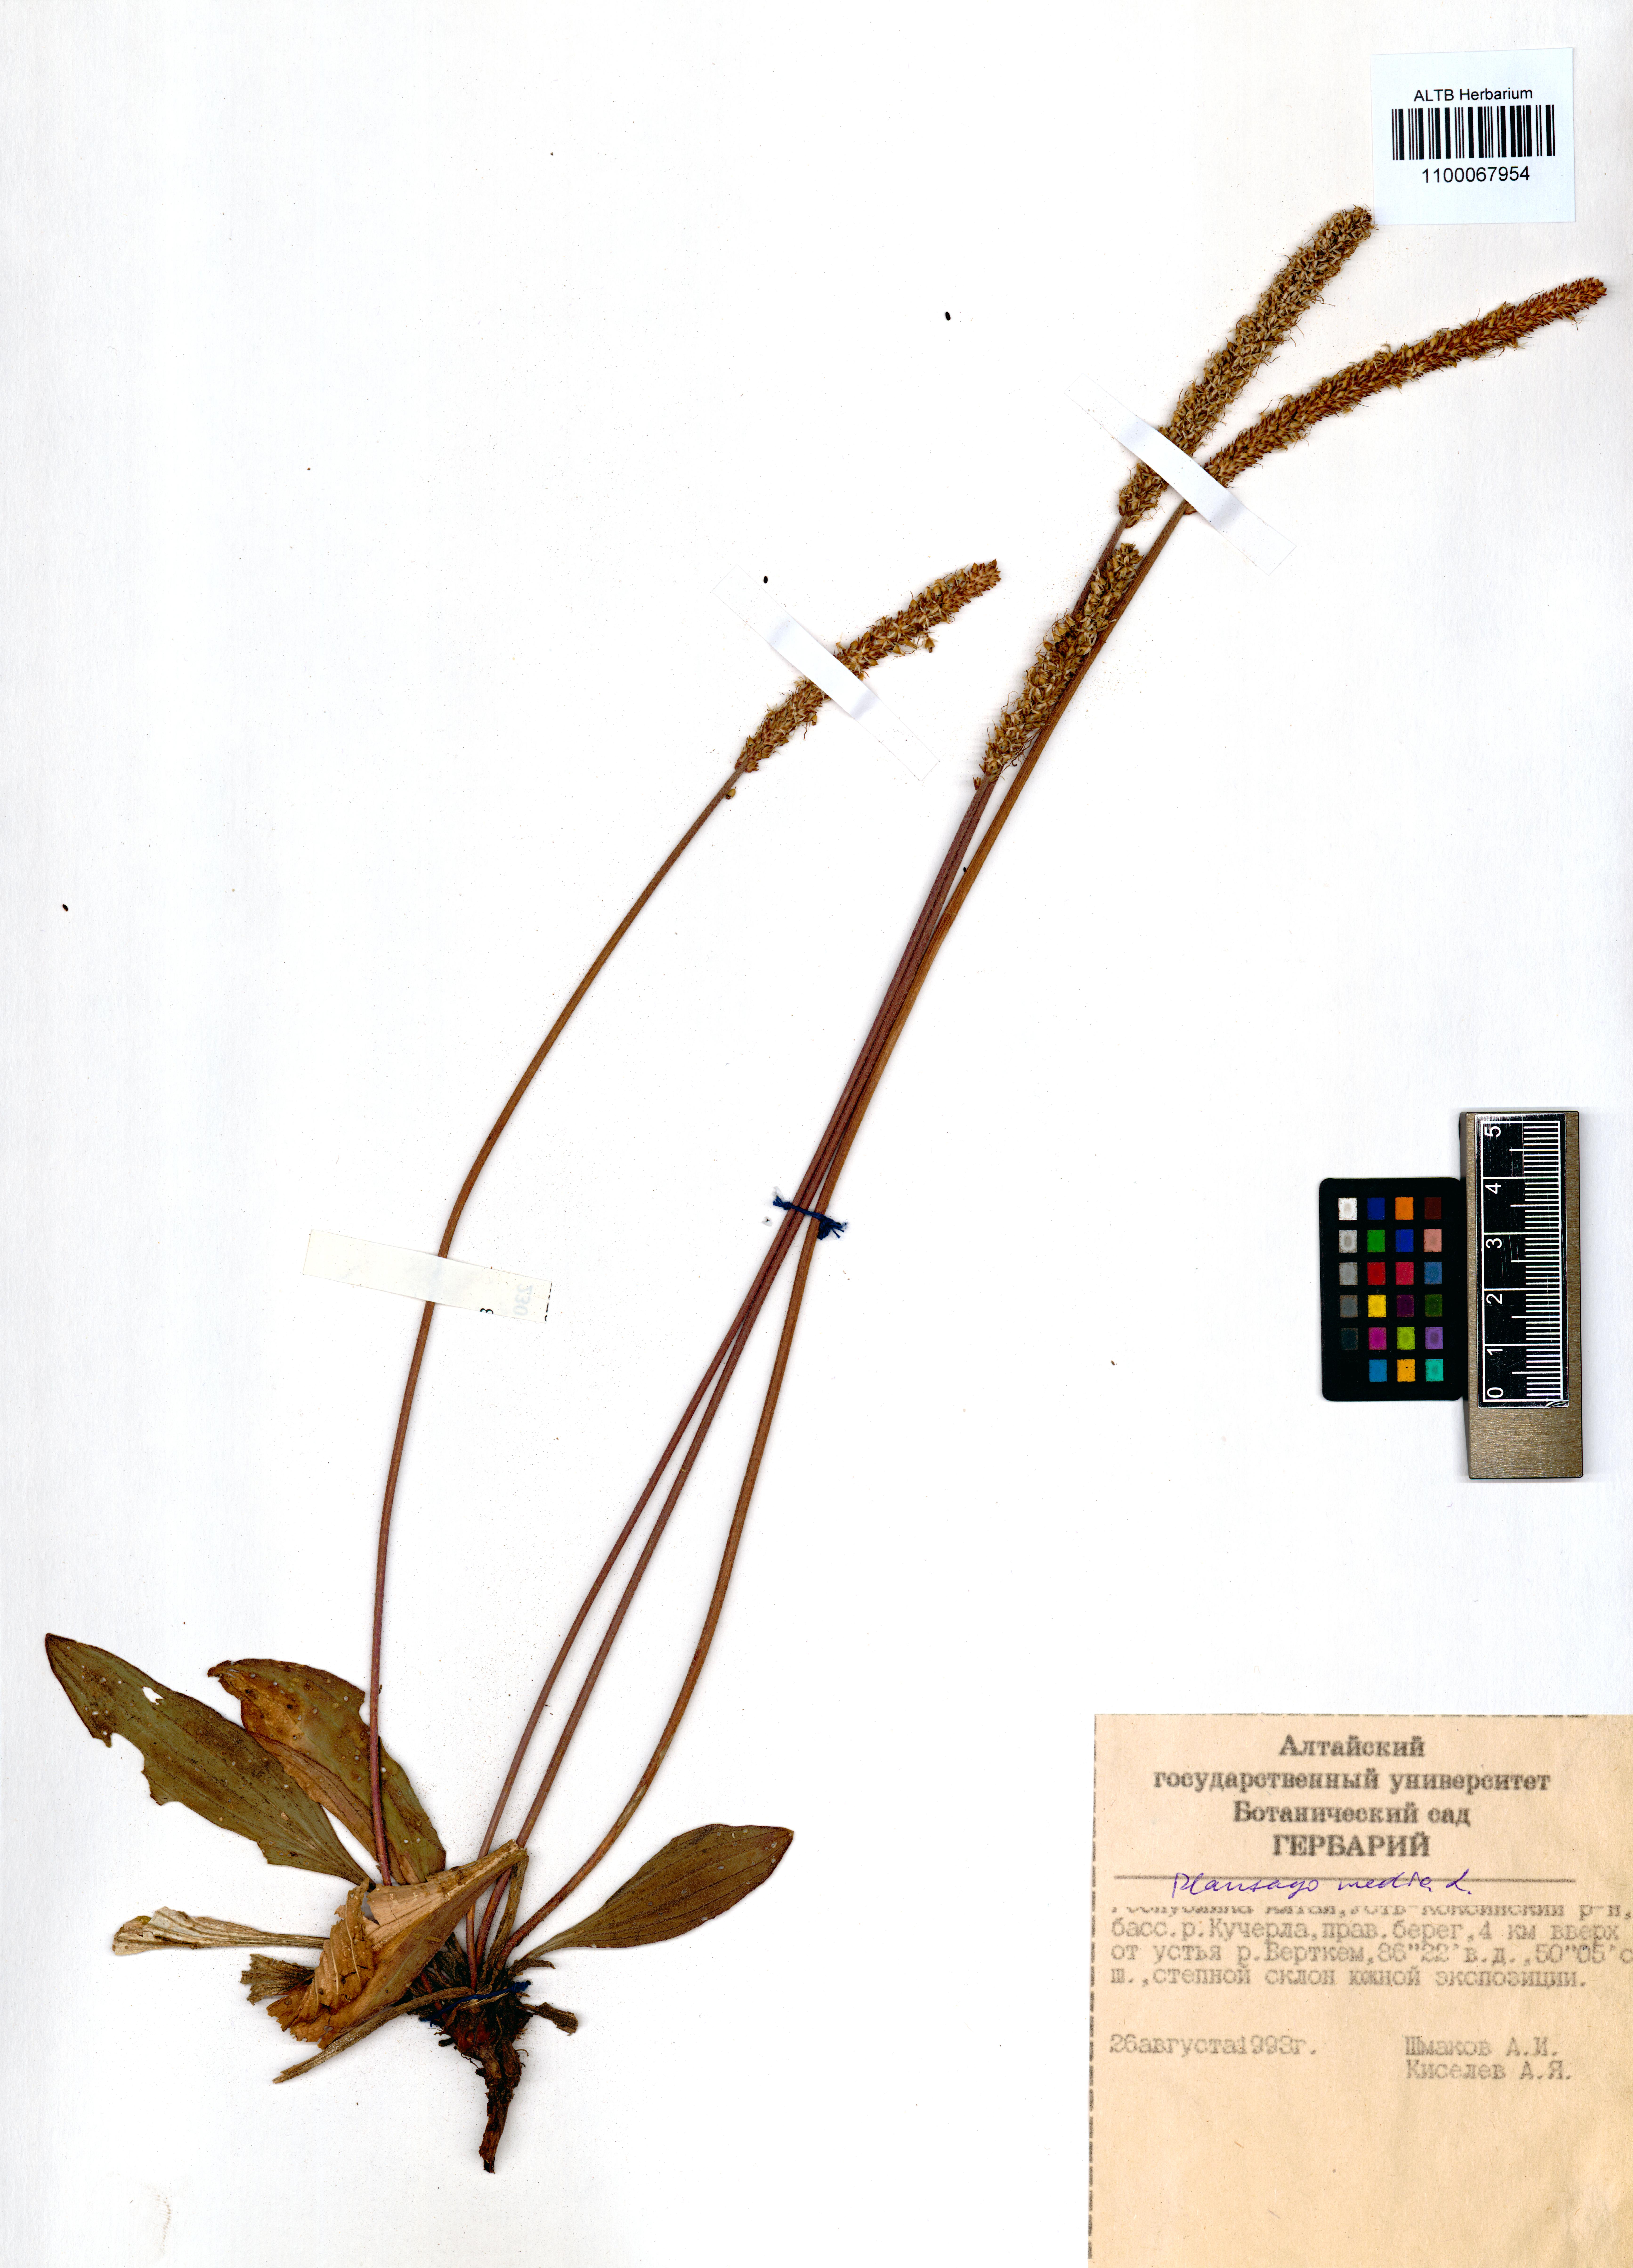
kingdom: Plantae
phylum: Tracheophyta
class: Magnoliopsida
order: Lamiales
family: Plantaginaceae
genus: Plantago
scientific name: Plantago media
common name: Hoary plantain
